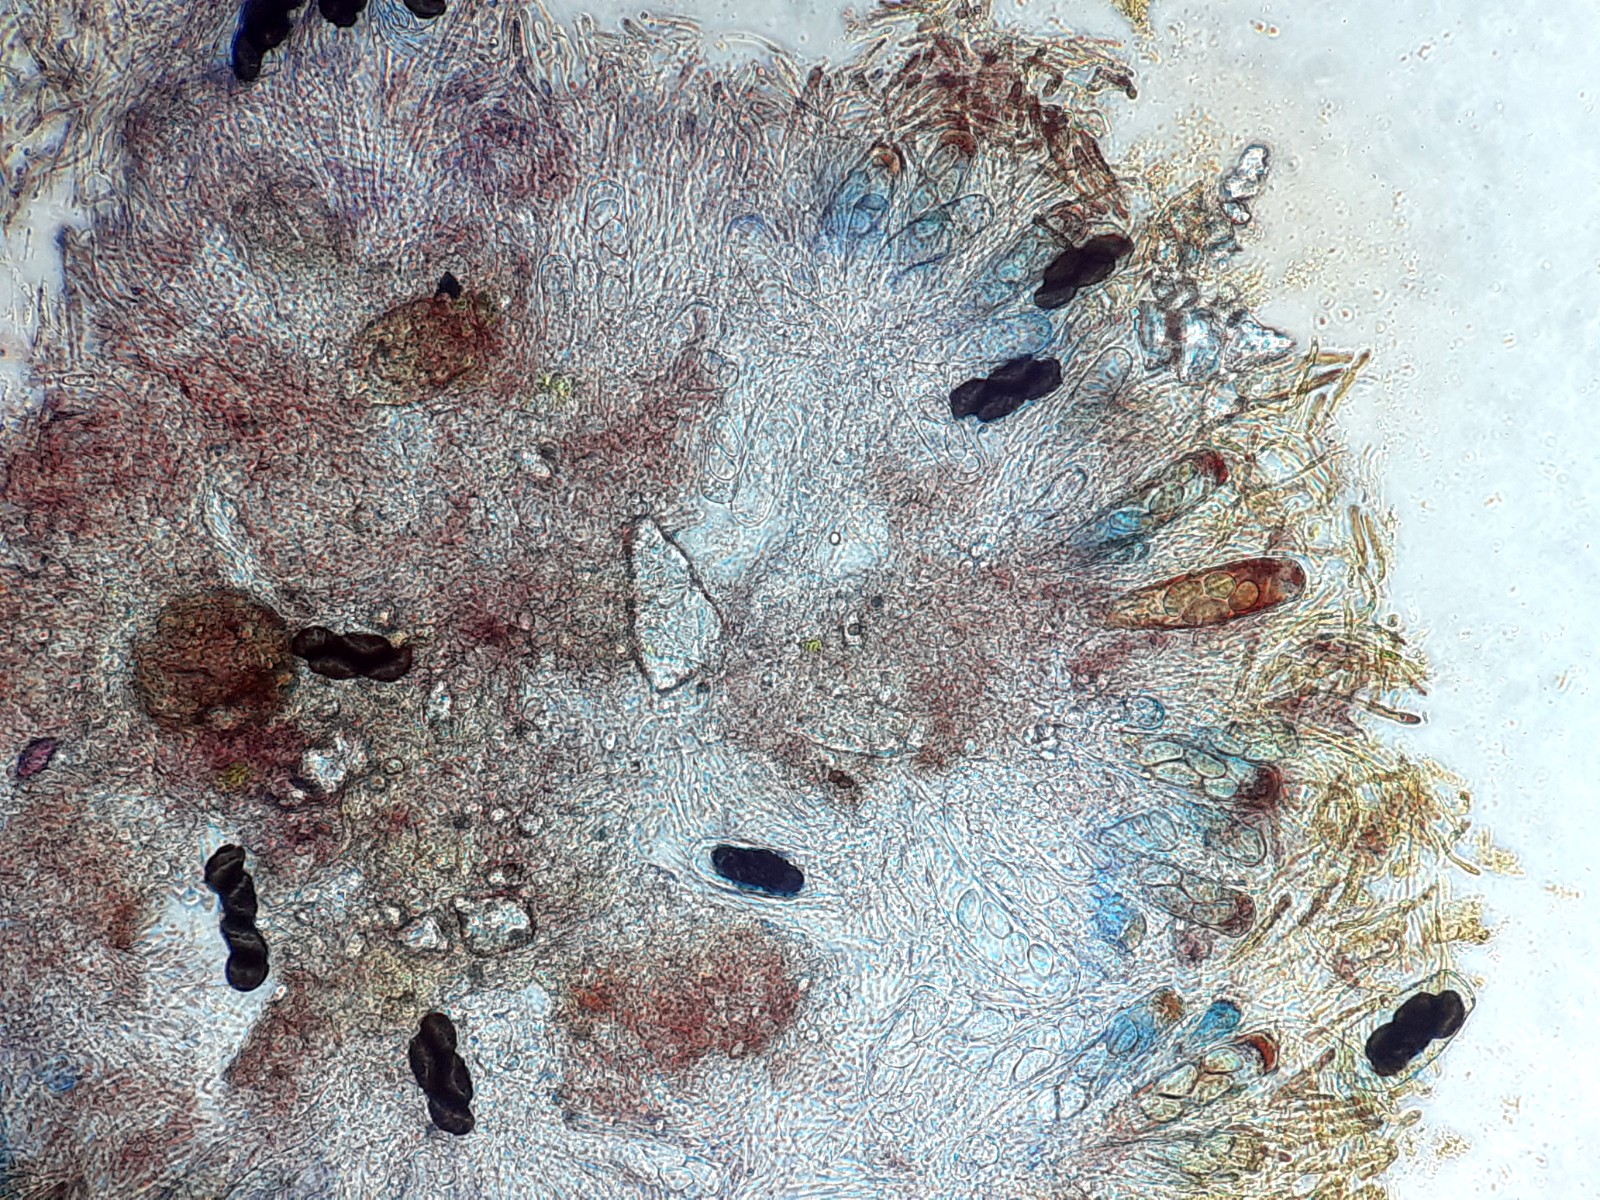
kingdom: Fungi
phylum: Ascomycota
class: Pezizomycetes
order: Pezizales
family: Ascobolaceae
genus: Saccobolus
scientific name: Saccobolus quadrisporus
